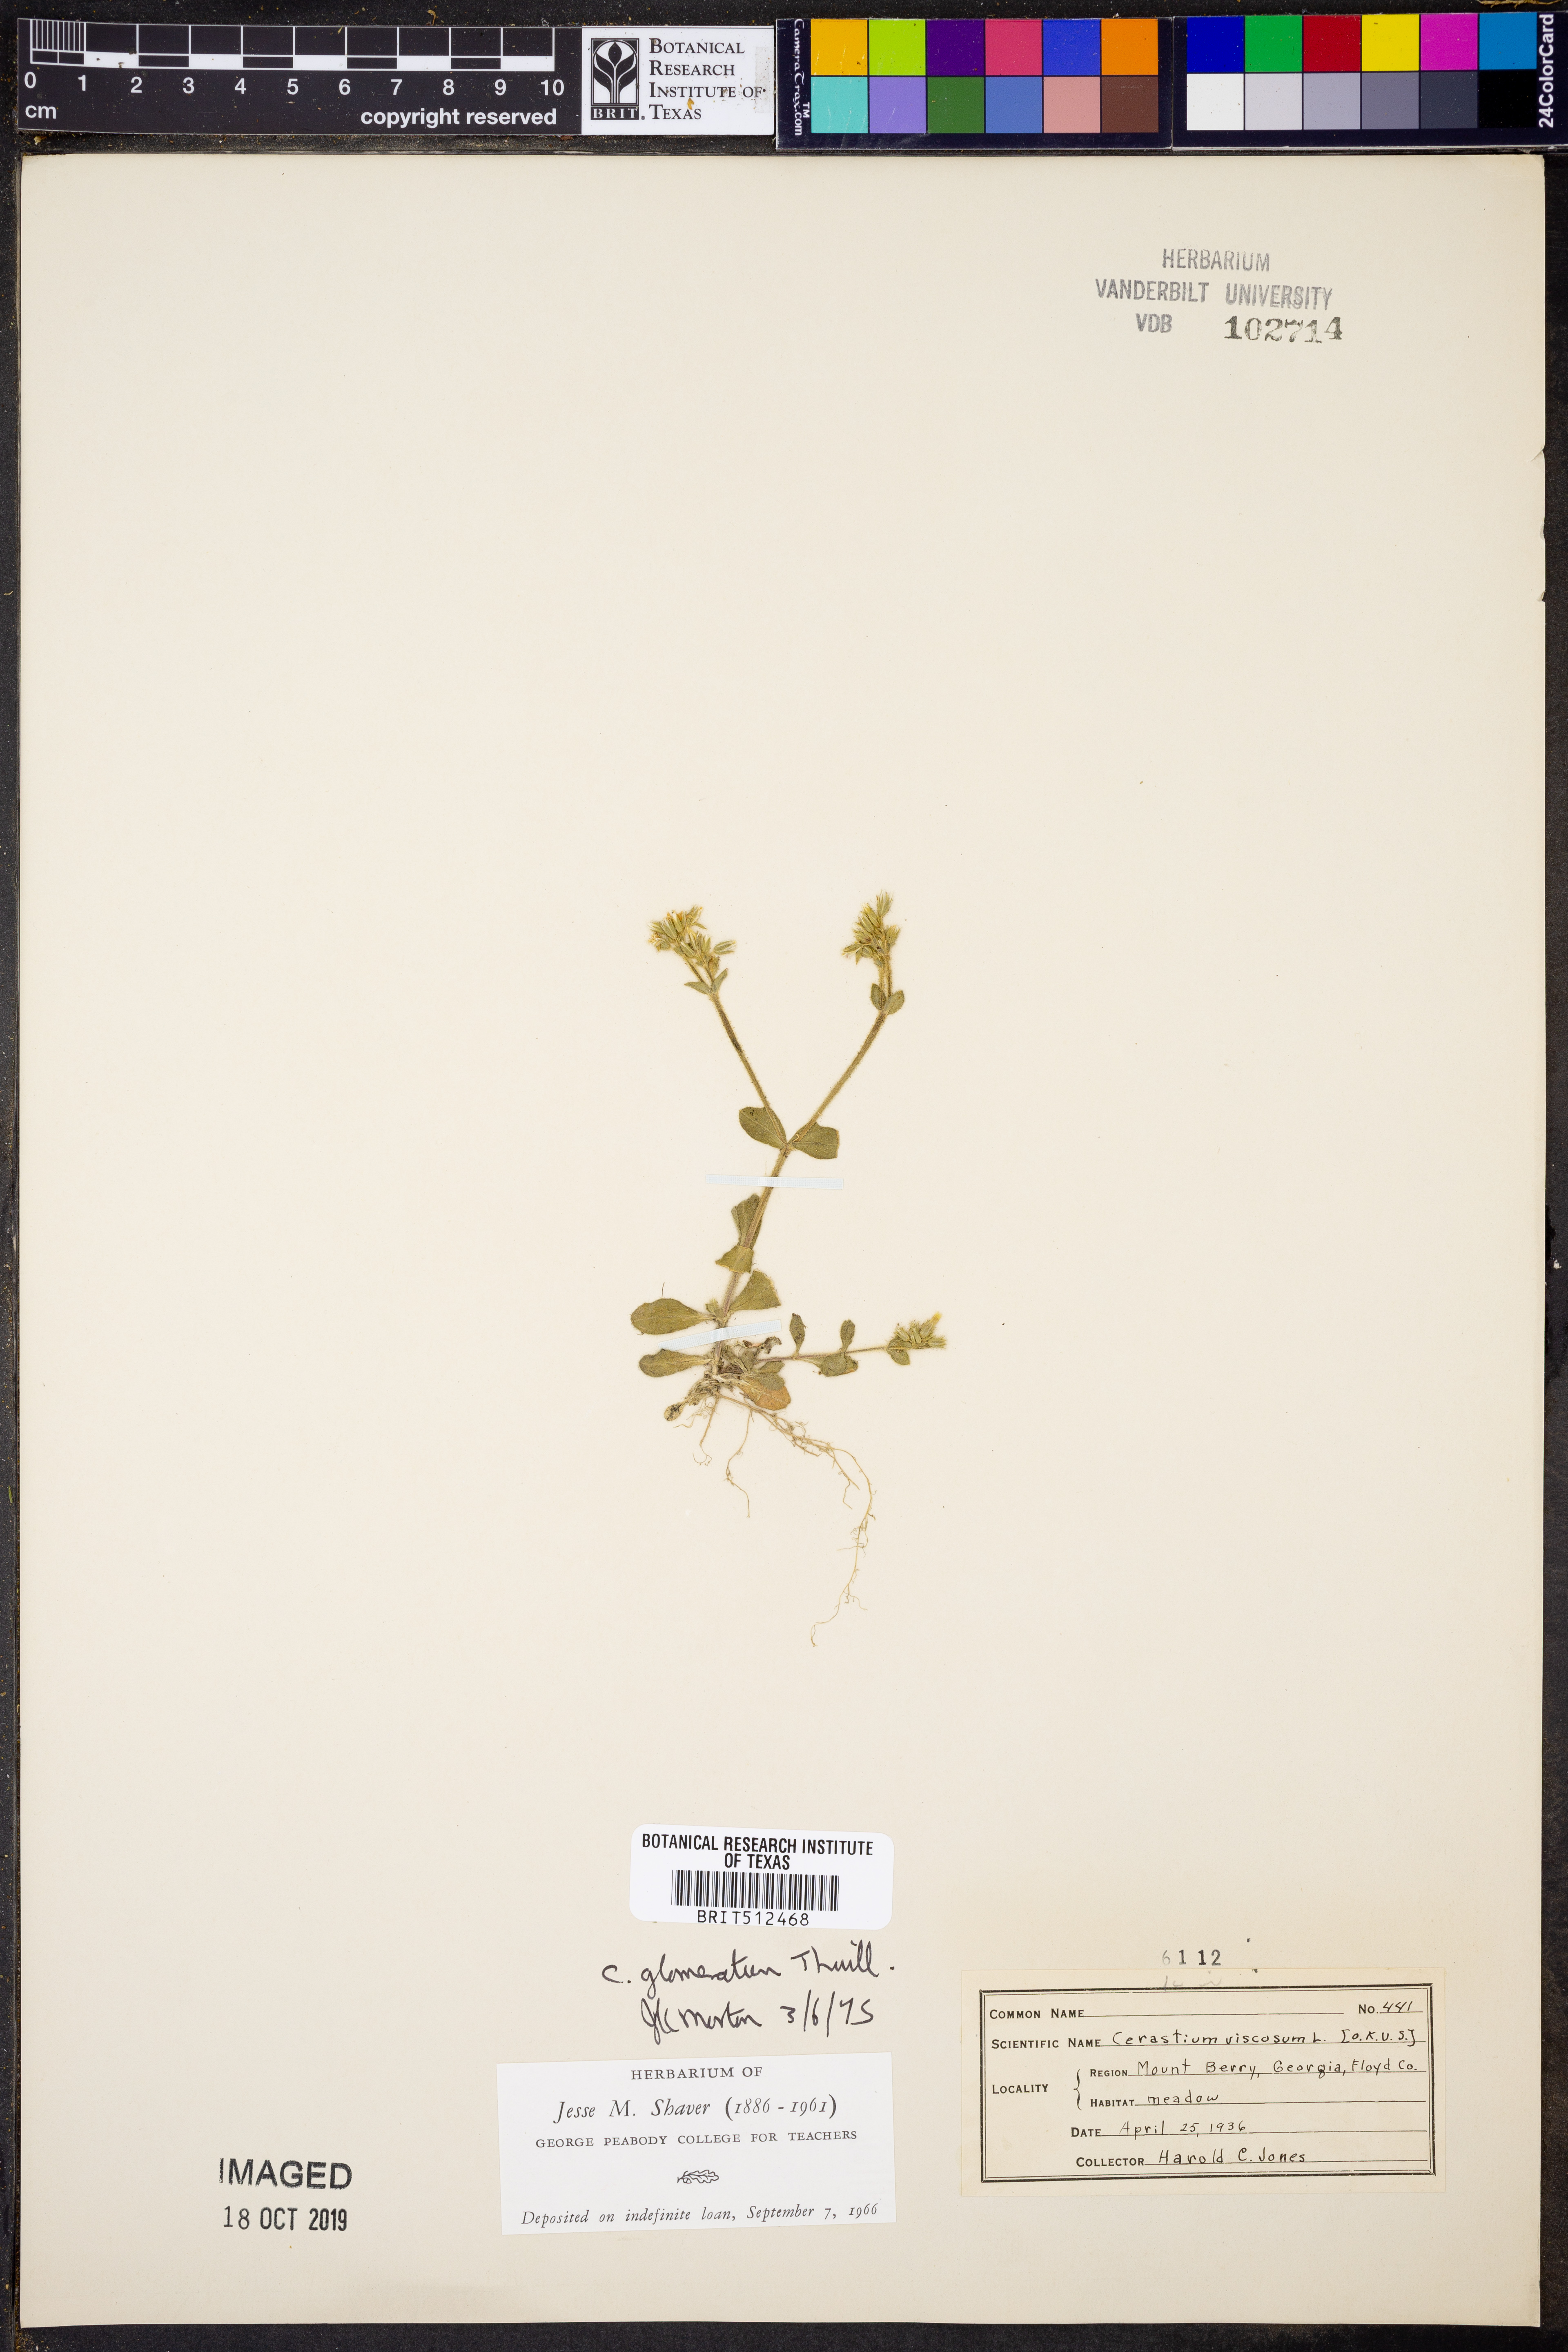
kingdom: Plantae
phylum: Tracheophyta
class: Magnoliopsida
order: Caryophyllales
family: Caryophyllaceae
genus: Cerastium
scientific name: Cerastium glomeratum
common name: Sticky chickweed
